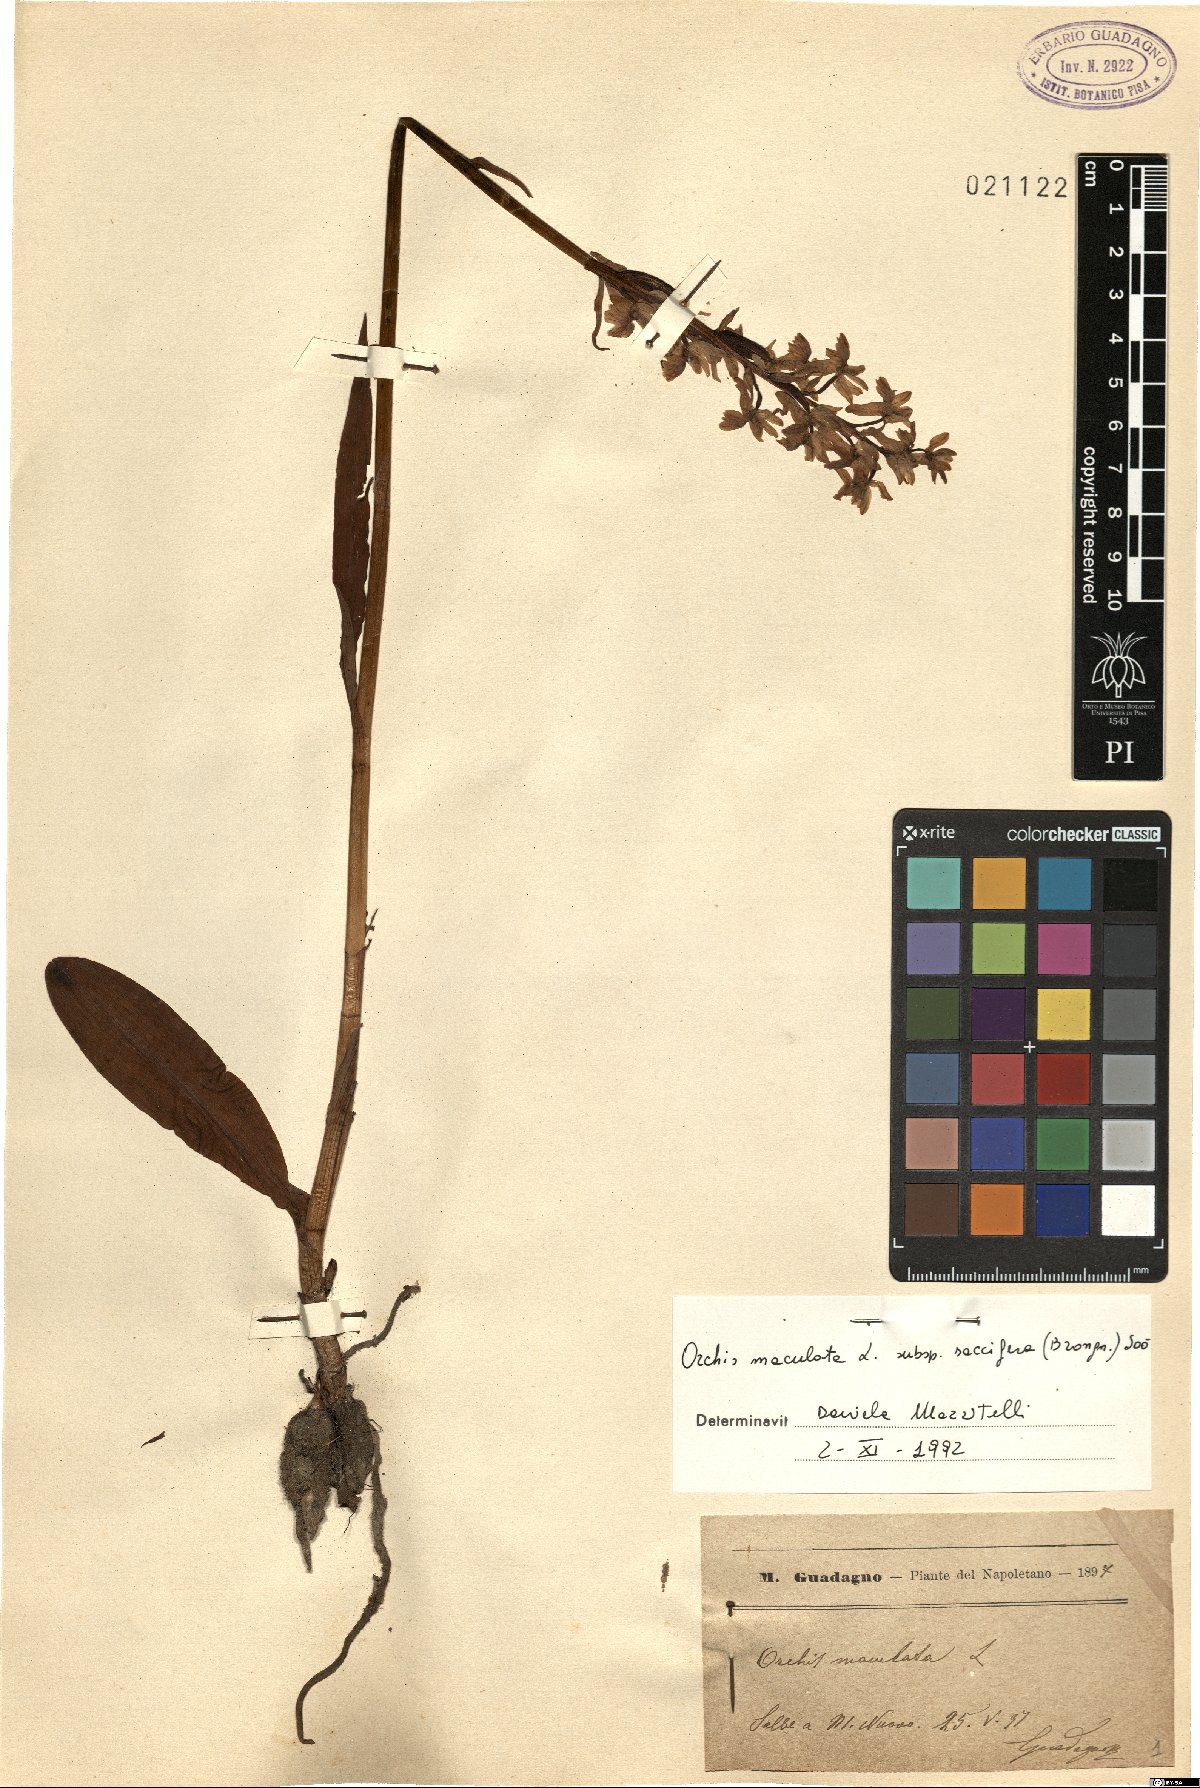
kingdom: Plantae
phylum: Tracheophyta
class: Liliopsida
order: Asparagales
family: Orchidaceae
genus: Dactylorhiza
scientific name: Dactylorhiza maculata
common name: Heath spotted-orchid
